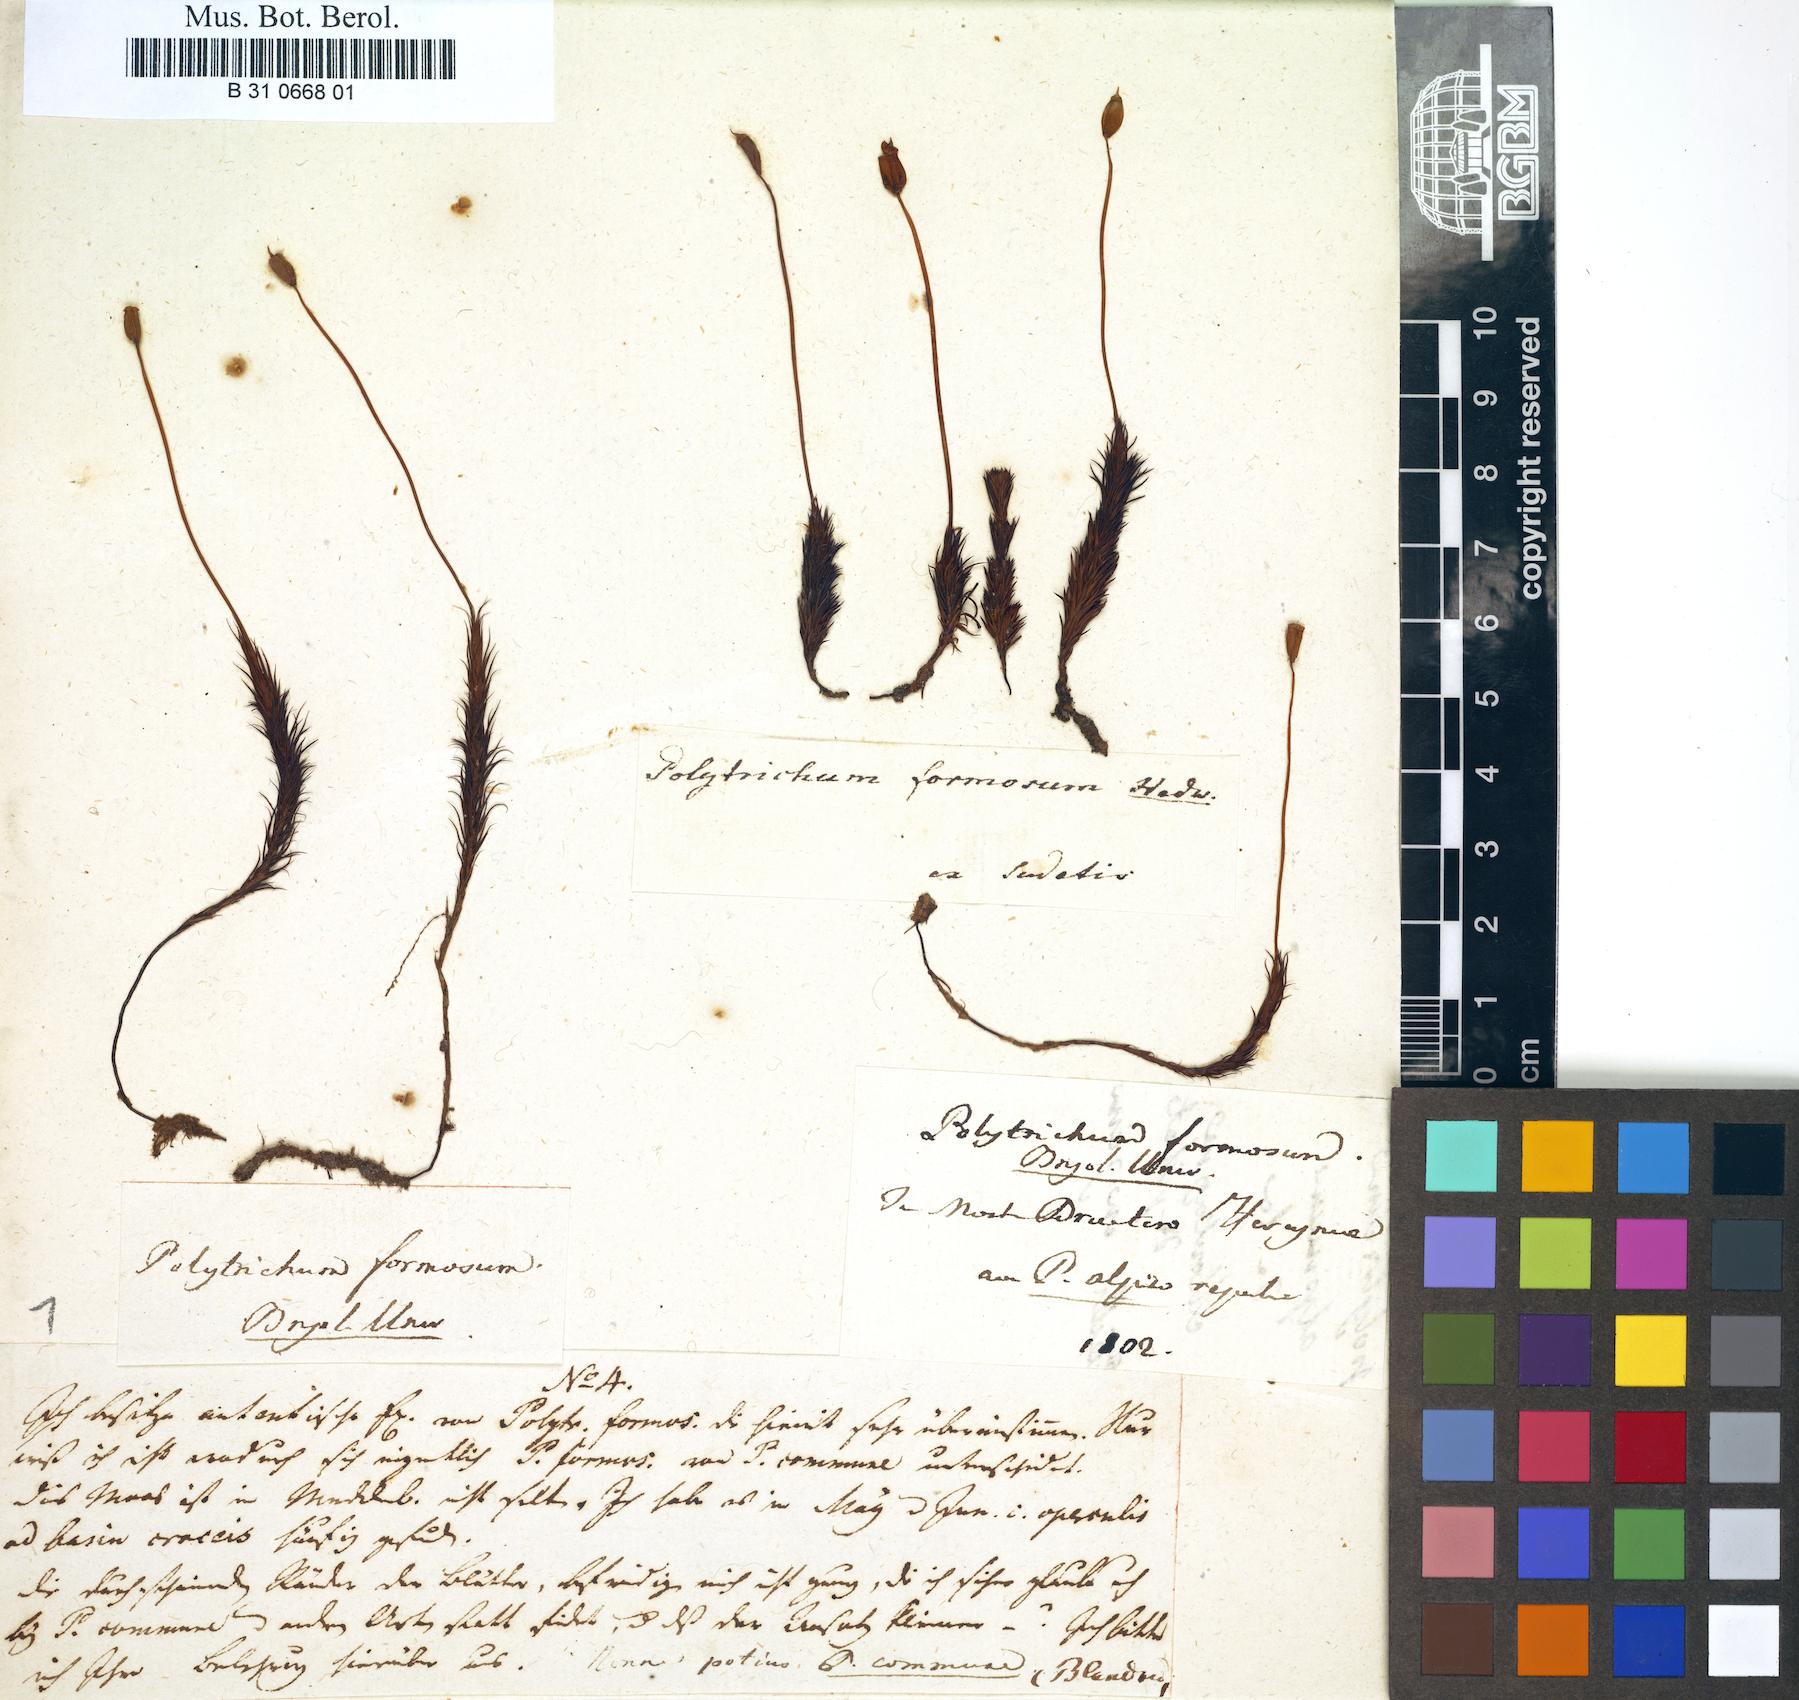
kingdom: Plantae
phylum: Bryophyta
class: Polytrichopsida
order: Polytrichales
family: Polytrichaceae
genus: Polytrichum
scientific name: Polytrichum formosum
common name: Bank haircap moss
